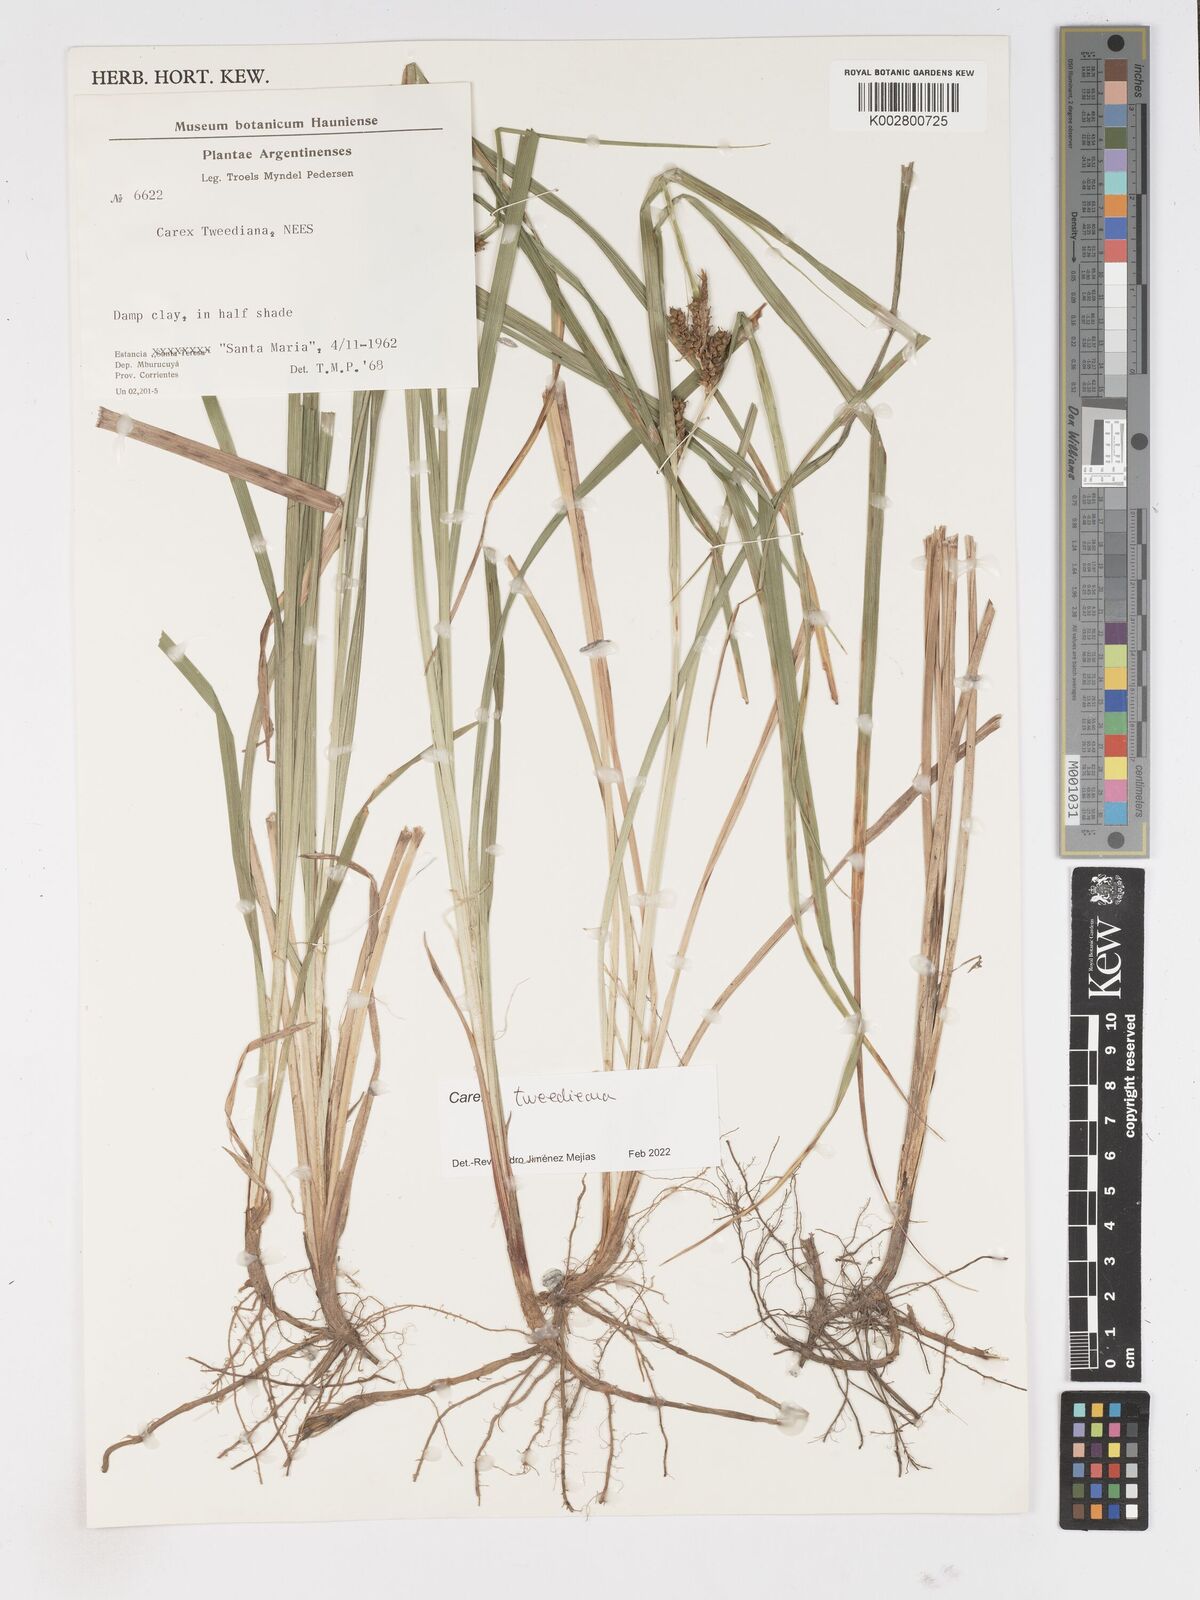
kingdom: Plantae
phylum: Tracheophyta
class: Liliopsida
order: Poales
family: Cyperaceae
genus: Carex
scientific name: Carex tweedieana
